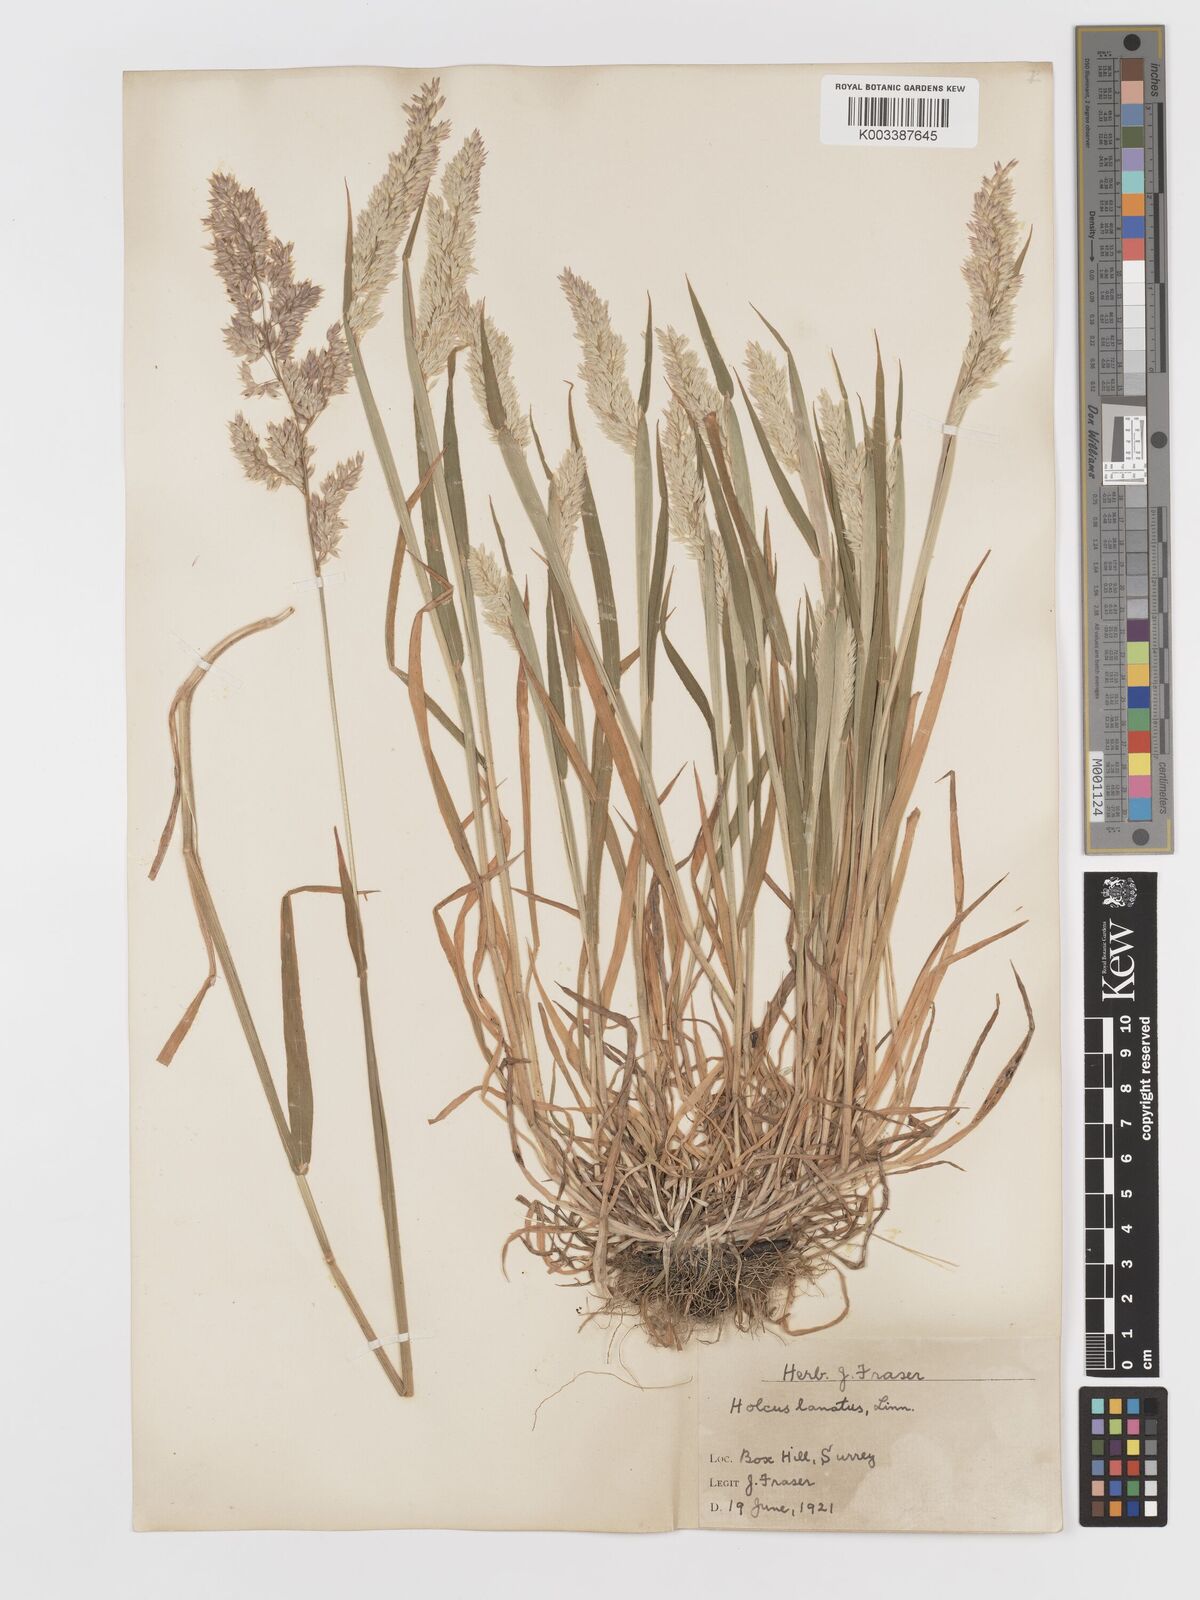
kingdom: Plantae
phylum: Tracheophyta
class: Liliopsida
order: Poales
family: Poaceae
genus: Holcus
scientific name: Holcus lanatus
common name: Yorkshire-fog
